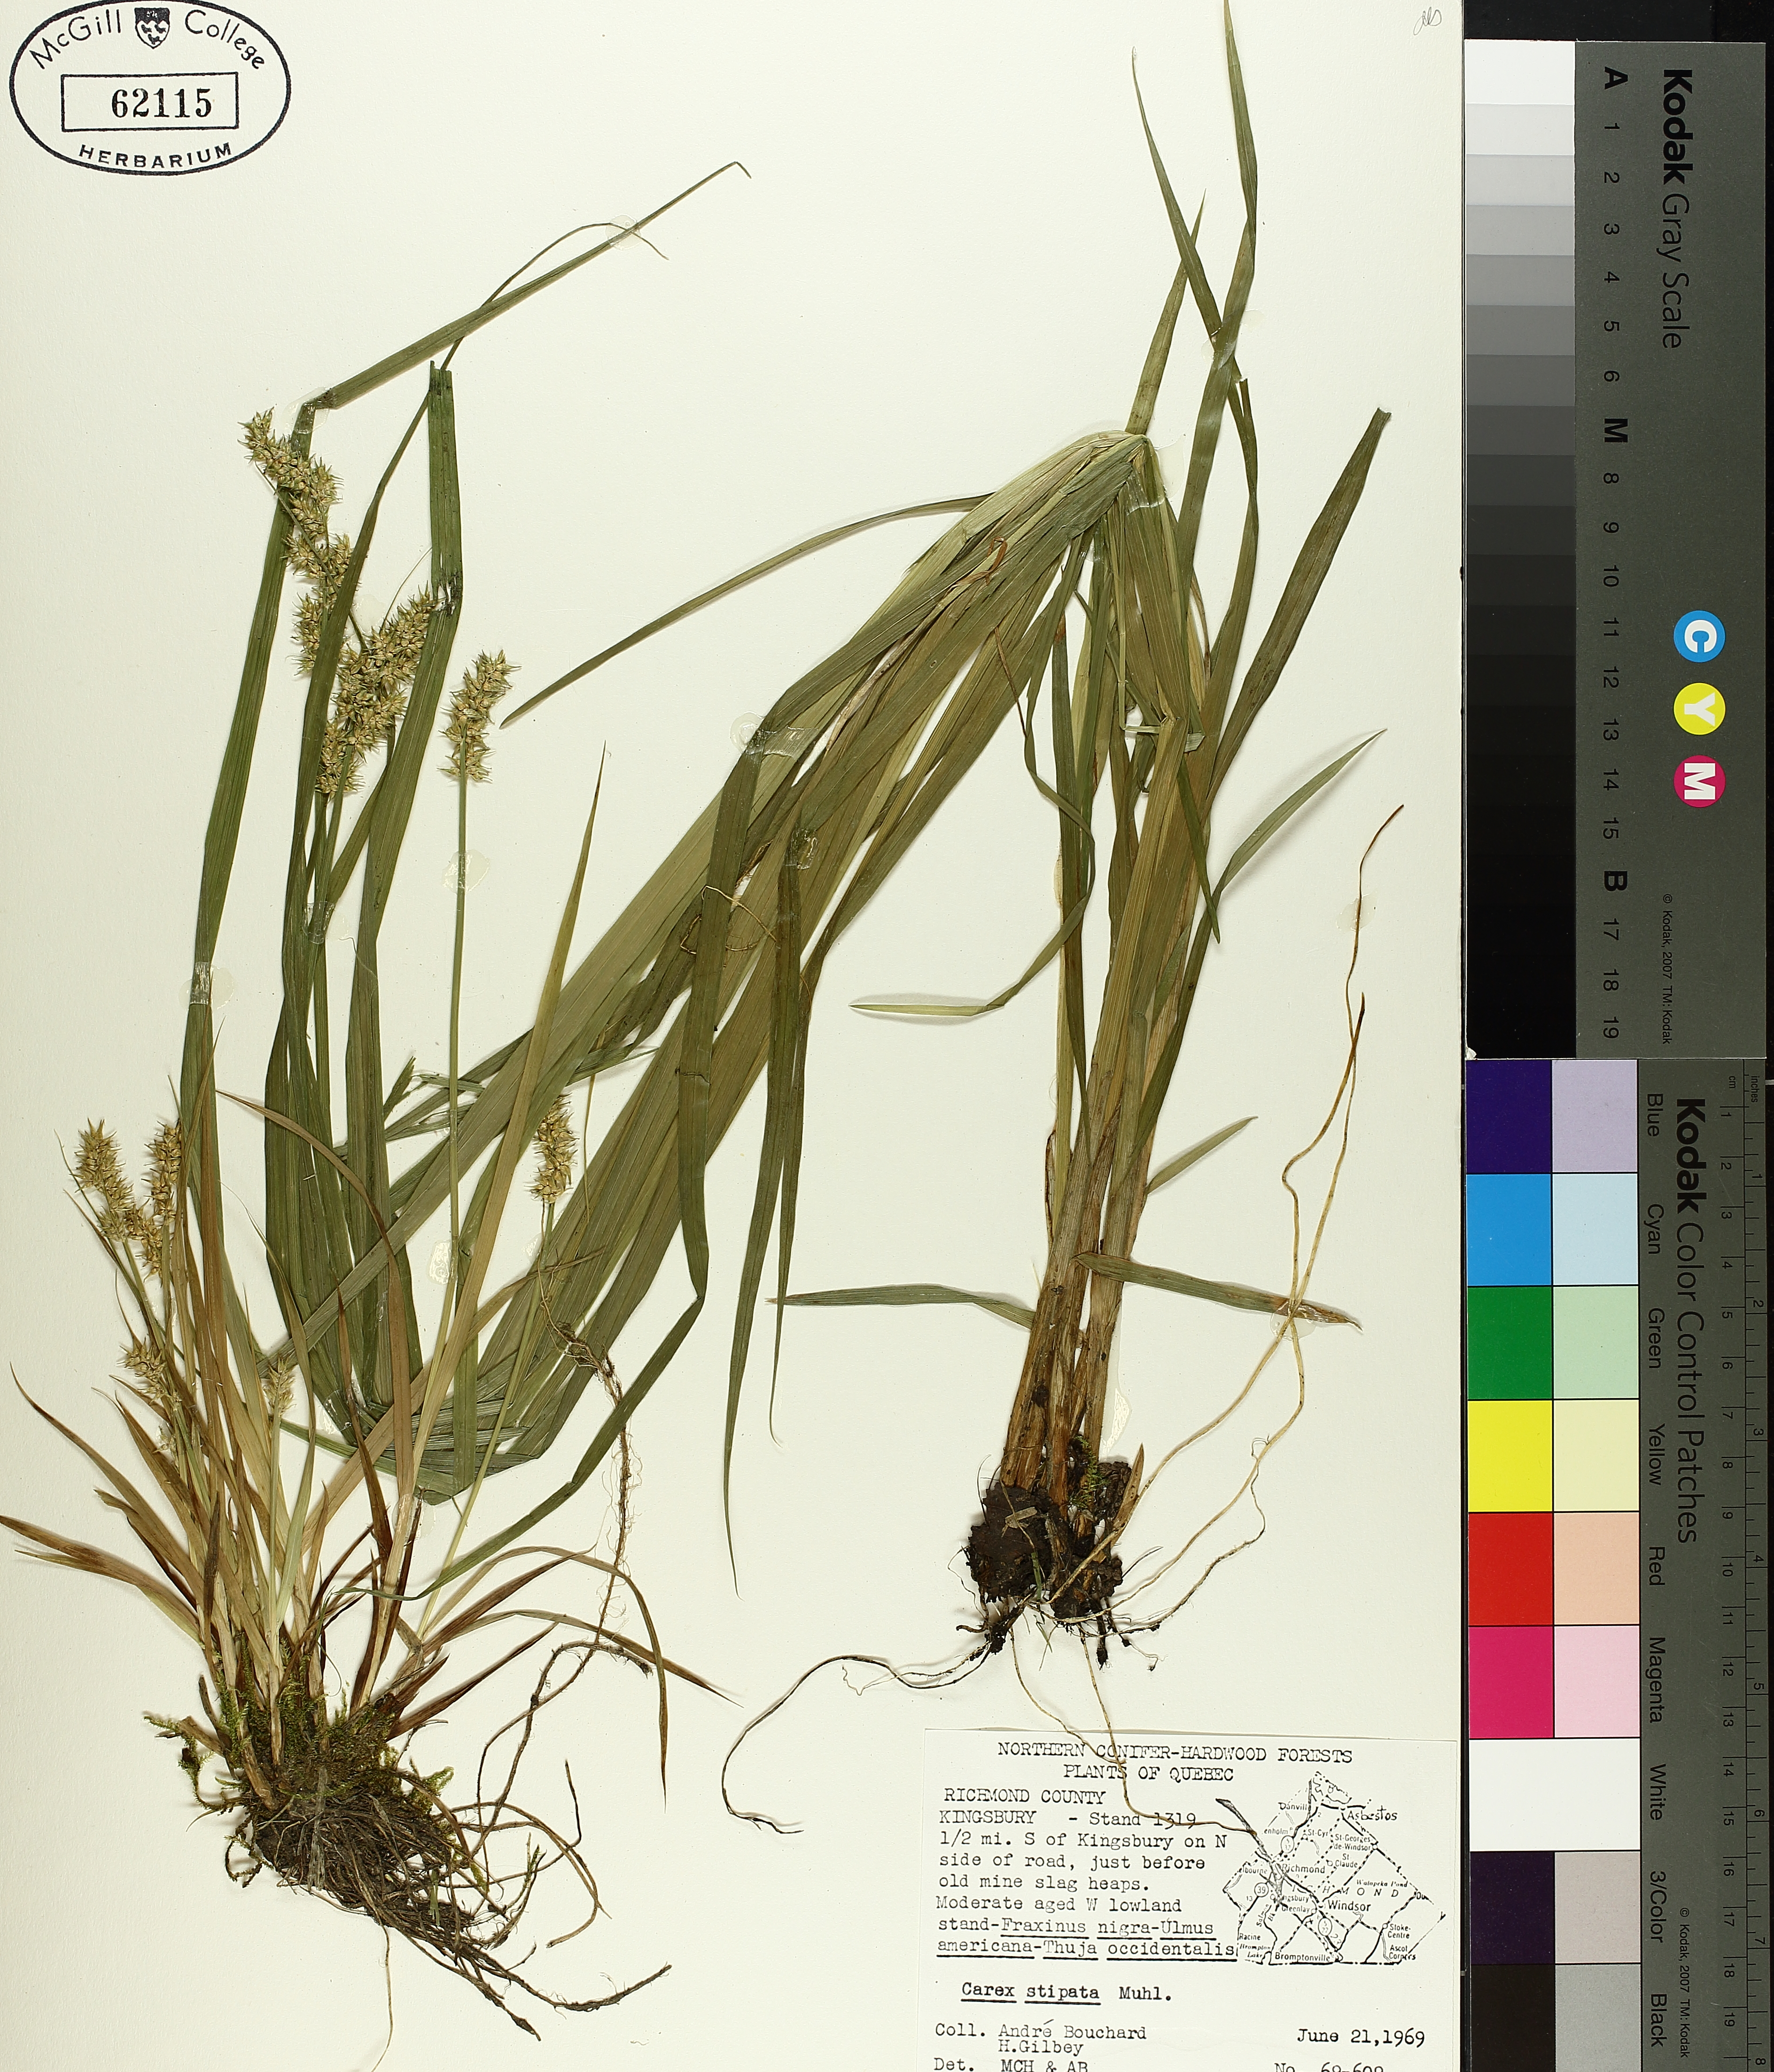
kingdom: Plantae
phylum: Tracheophyta
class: Liliopsida
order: Poales
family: Cyperaceae
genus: Carex
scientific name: Carex stipata
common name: Awl-fruited sedge
